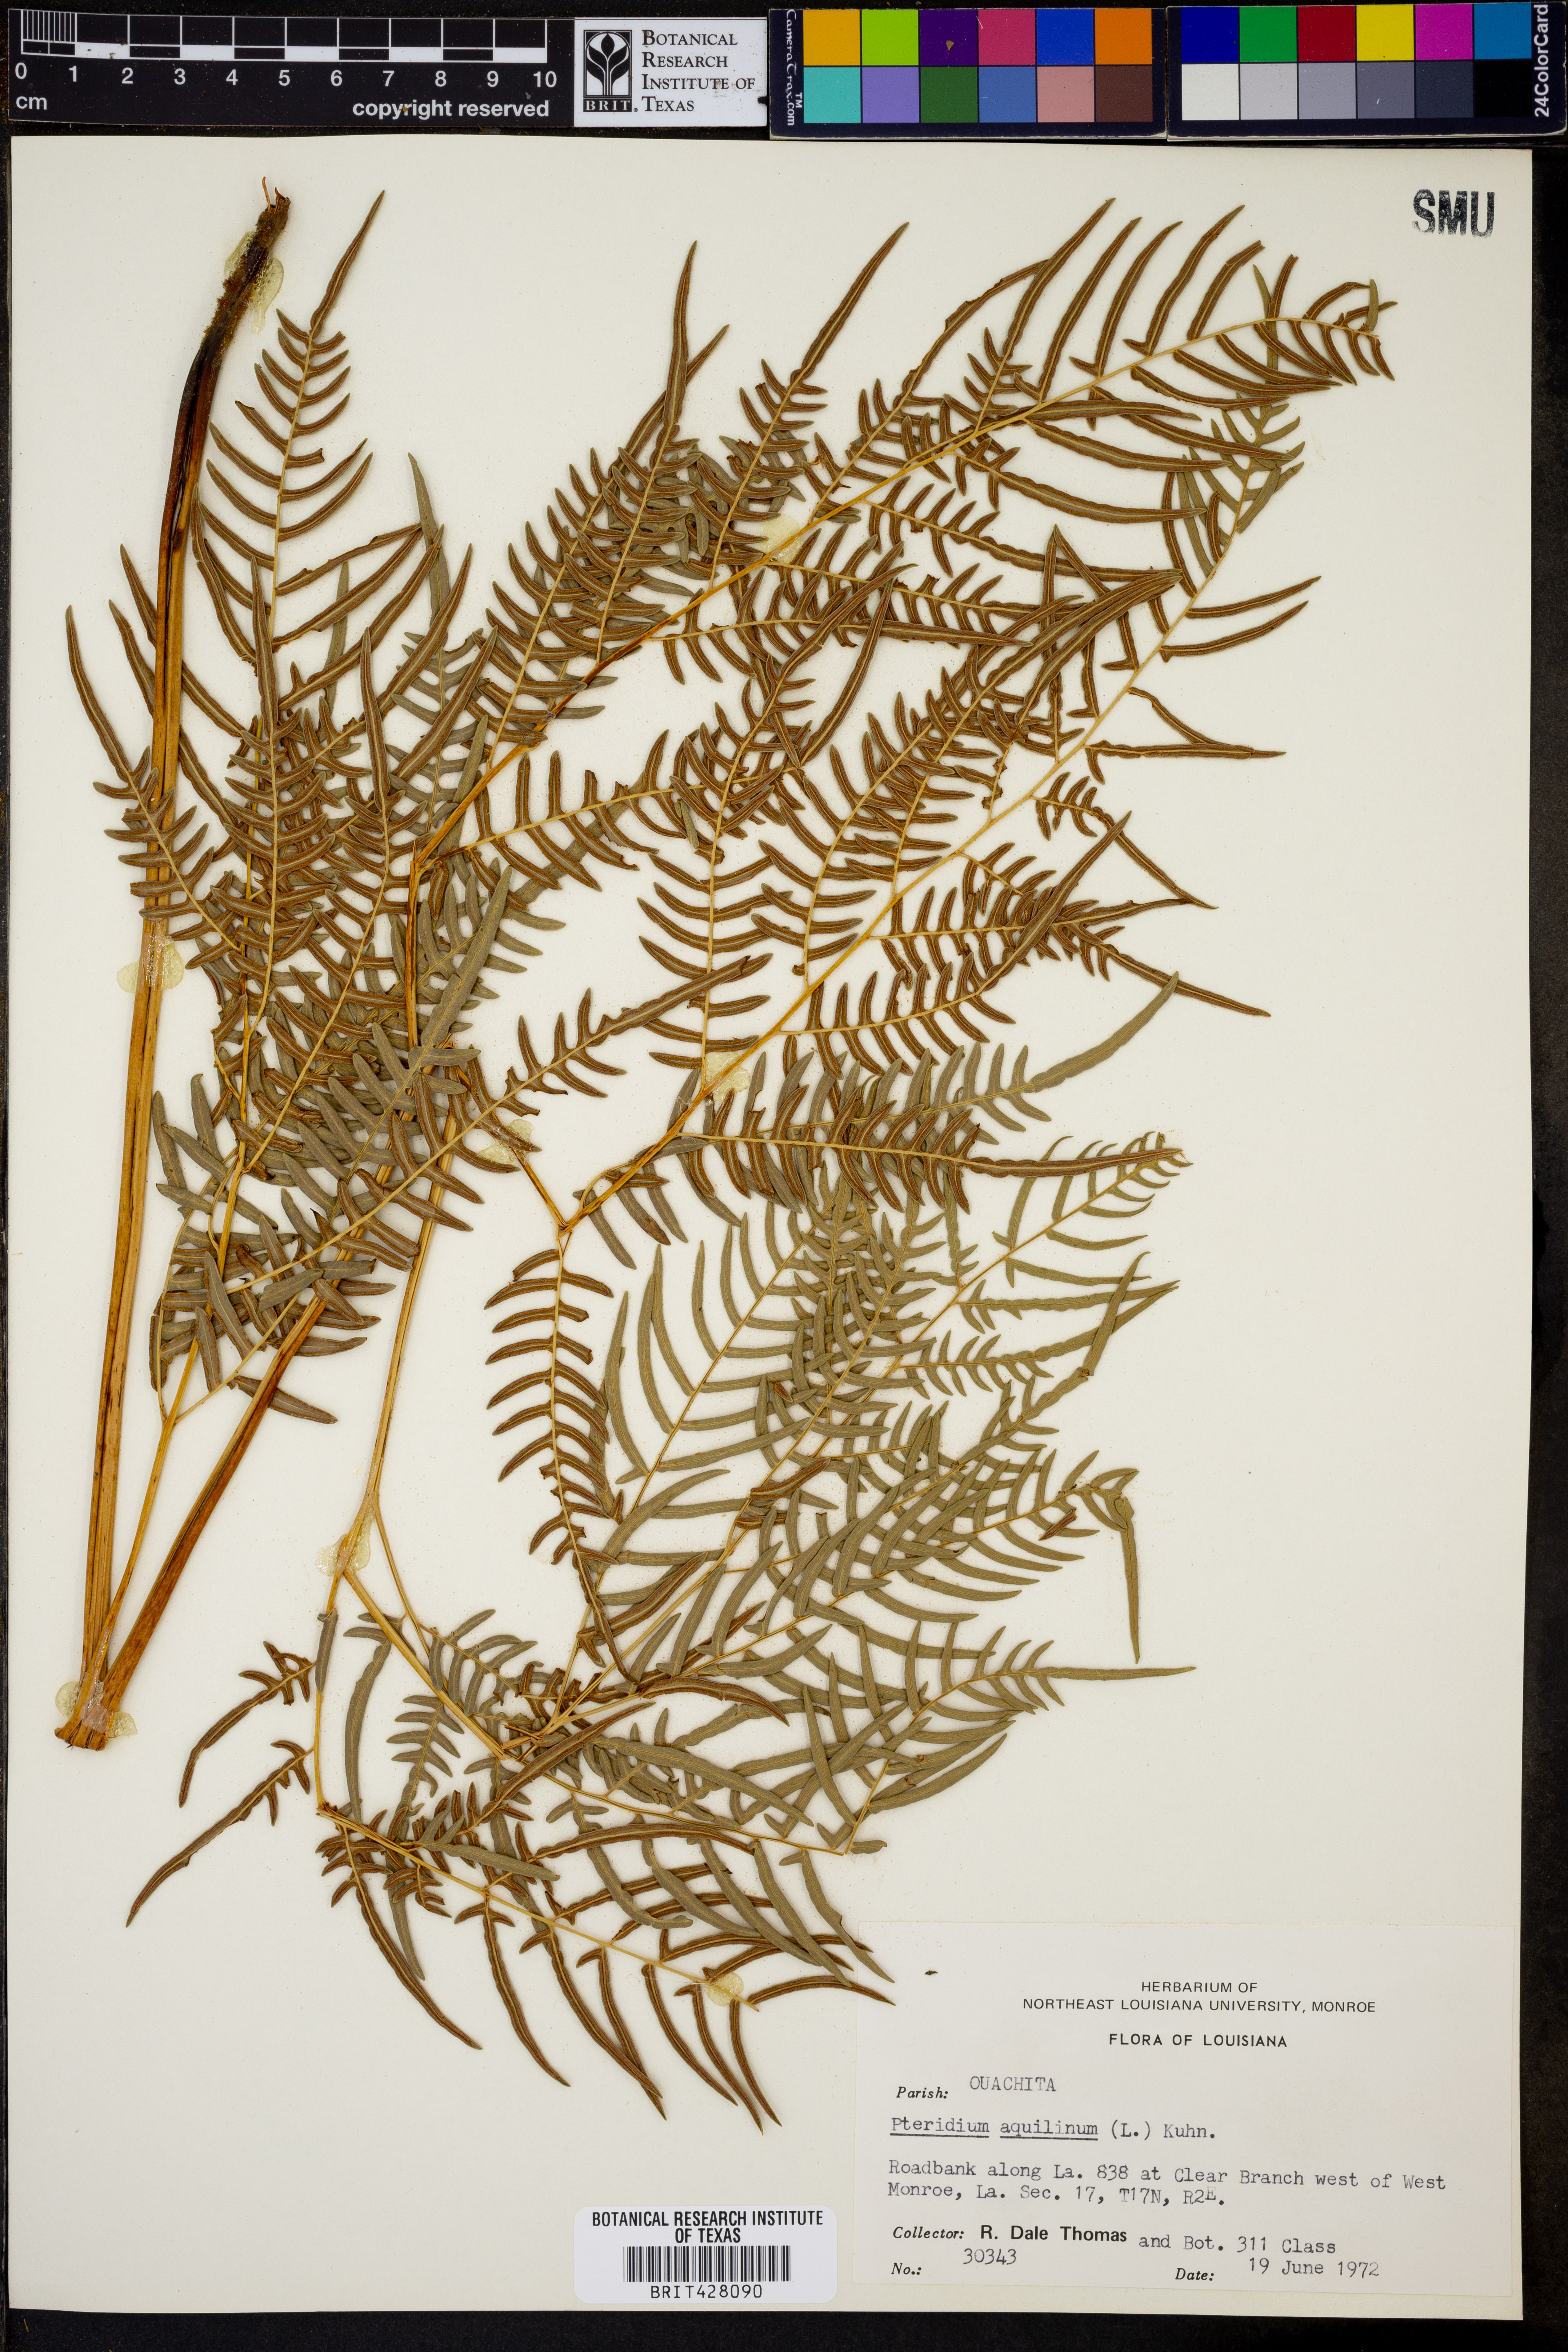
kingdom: Plantae
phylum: Tracheophyta
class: Polypodiopsida
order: Polypodiales
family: Dennstaedtiaceae
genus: Pteridium
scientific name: Pteridium aquilinum
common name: Bracken
